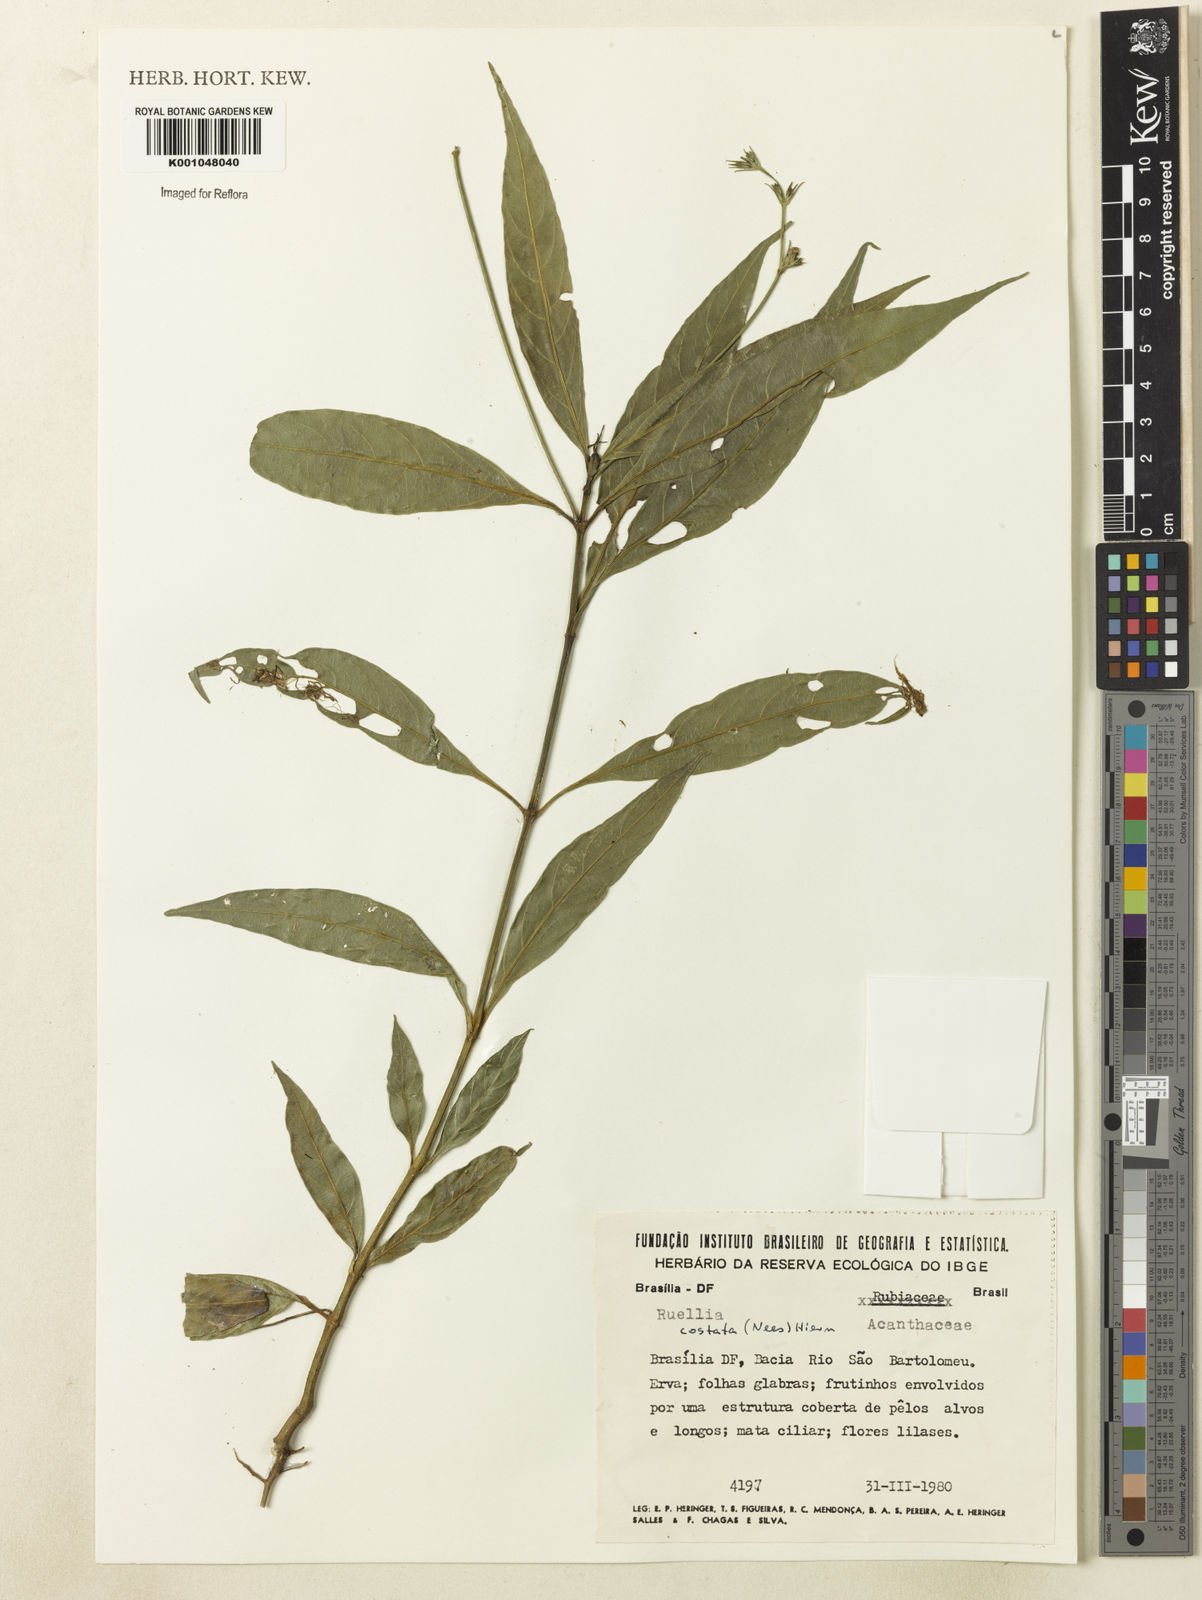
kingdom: Plantae
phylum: Tracheophyta
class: Magnoliopsida
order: Lamiales
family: Acanthaceae
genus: Ruellia
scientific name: Ruellia costata
